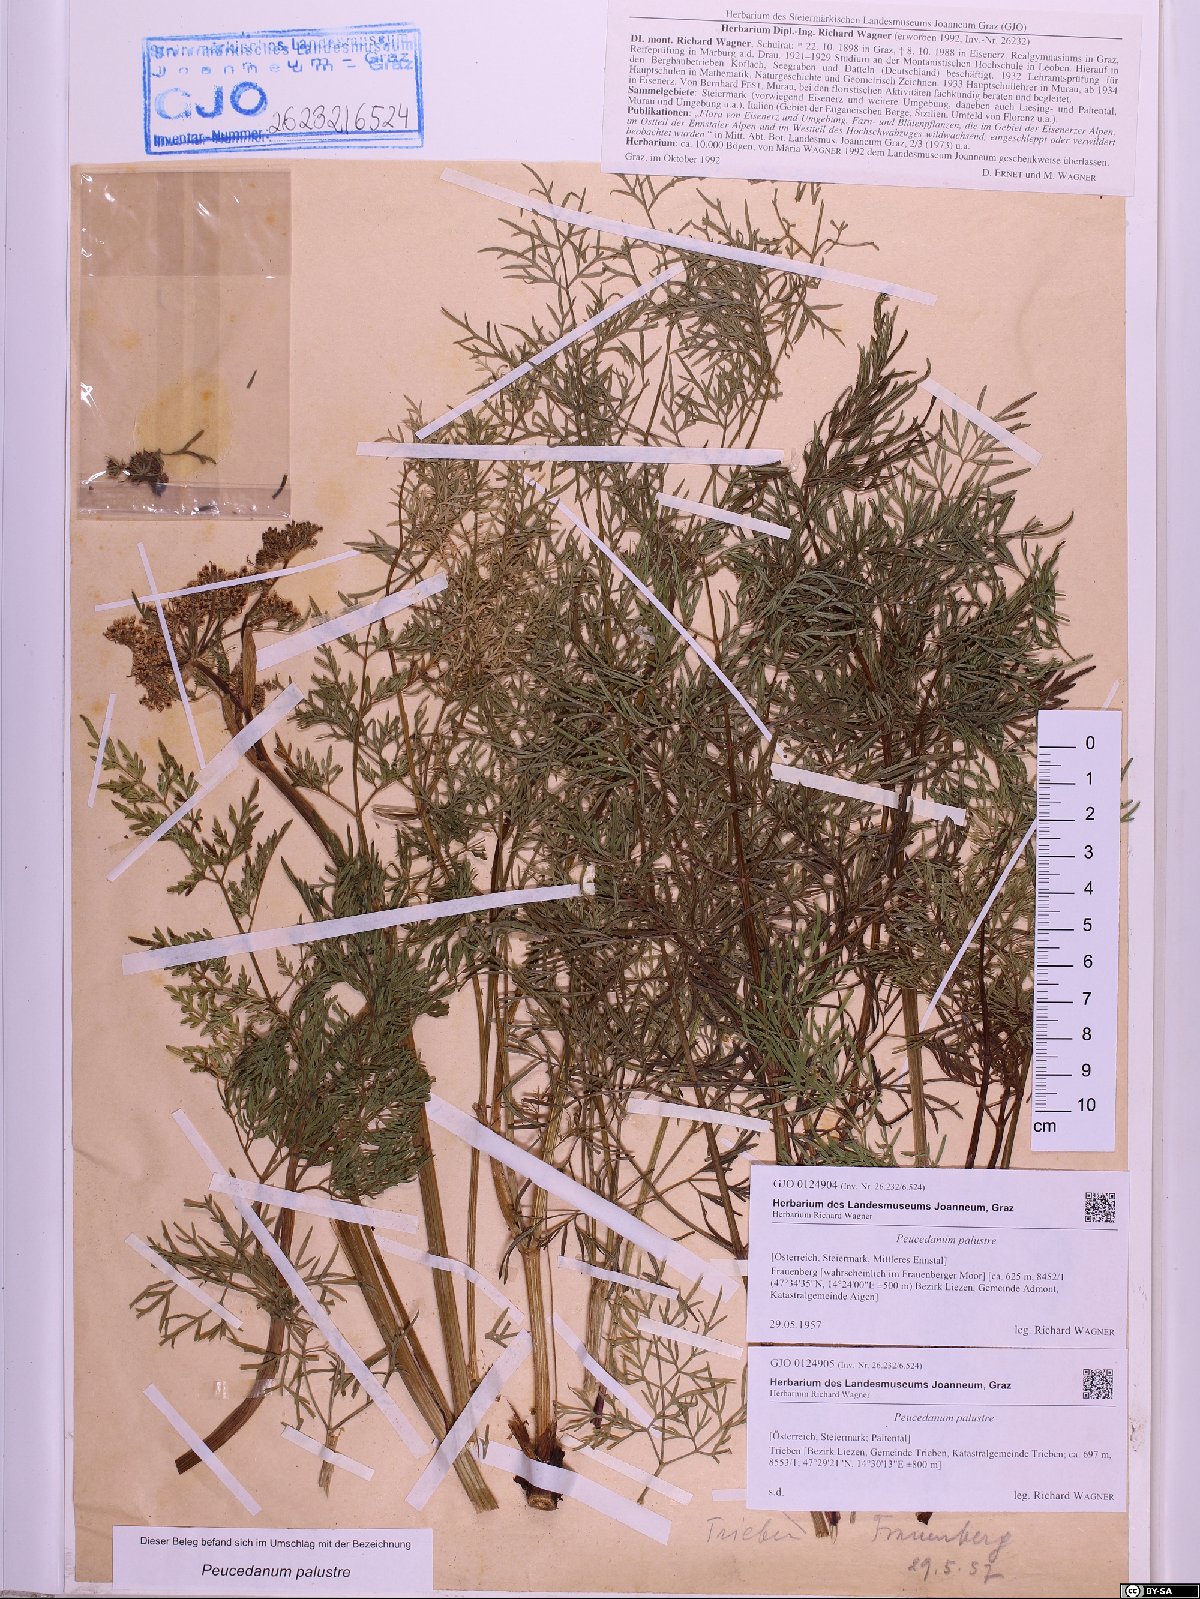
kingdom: Plantae
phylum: Tracheophyta
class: Magnoliopsida
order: Apiales
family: Apiaceae
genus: Thysselinum
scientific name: Thysselinum palustre
